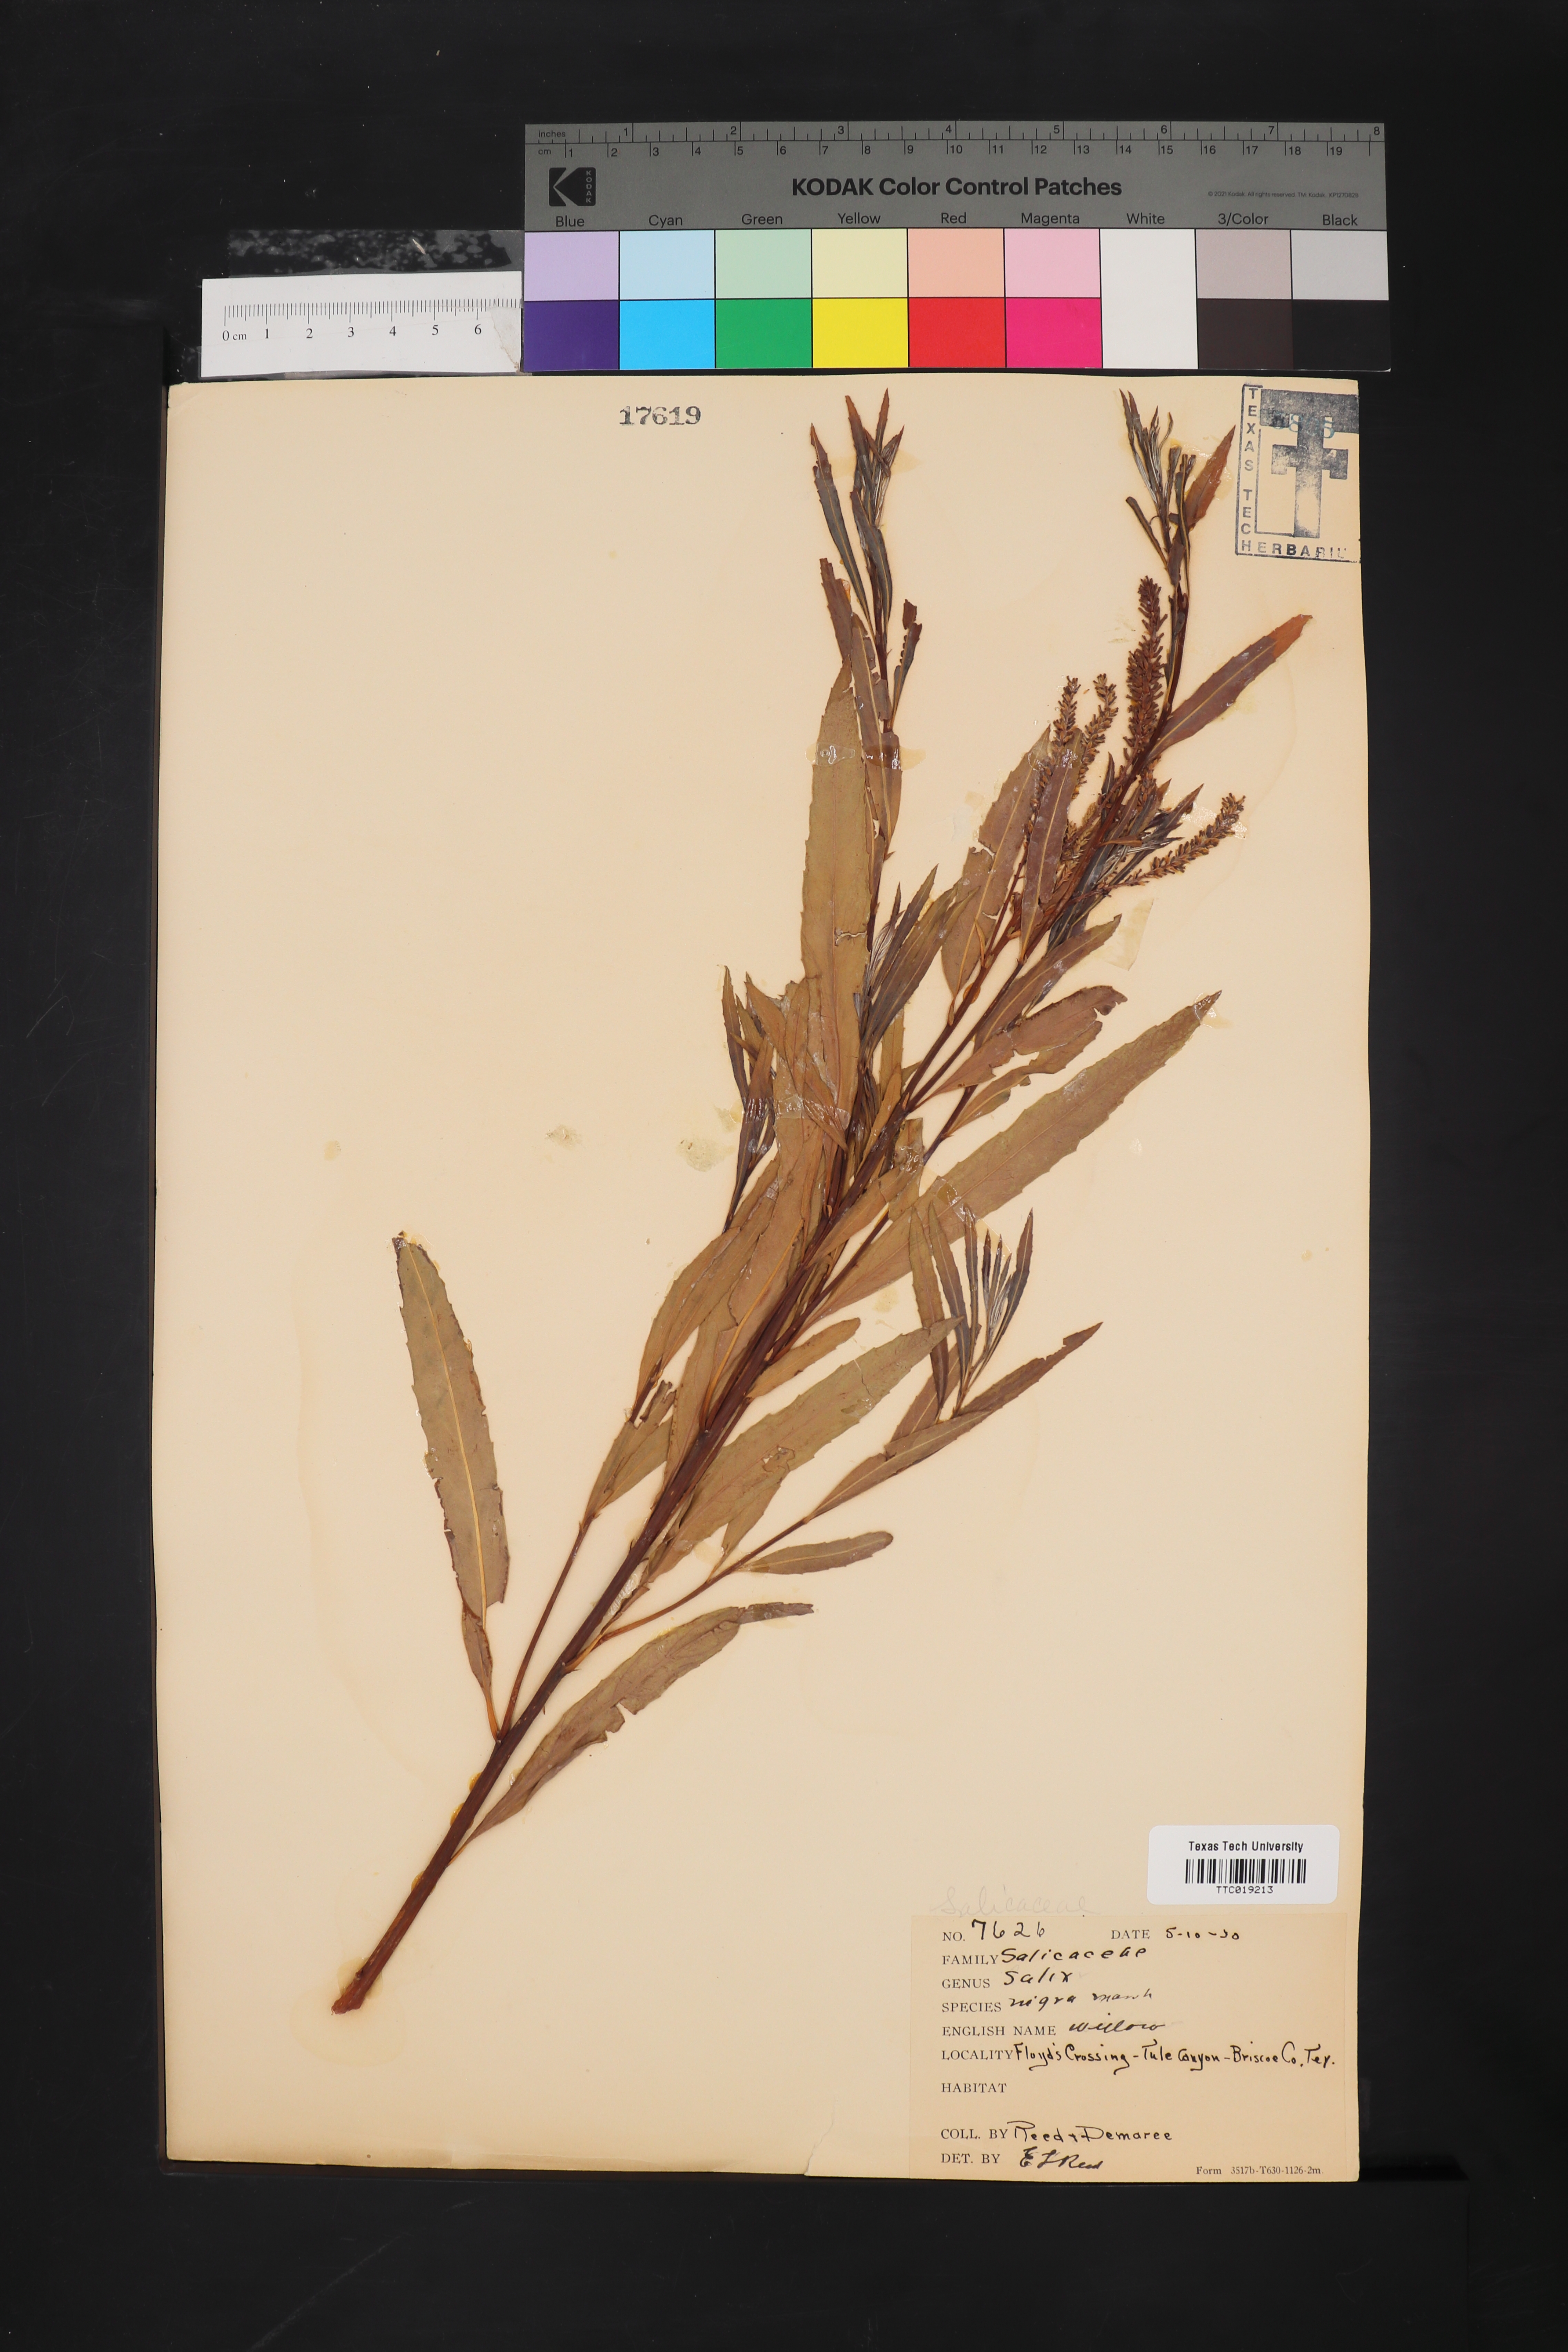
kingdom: Plantae
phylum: Tracheophyta
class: Magnoliopsida
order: Malpighiales
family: Salicaceae
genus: Salix
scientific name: Salix nigra
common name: Black willow
